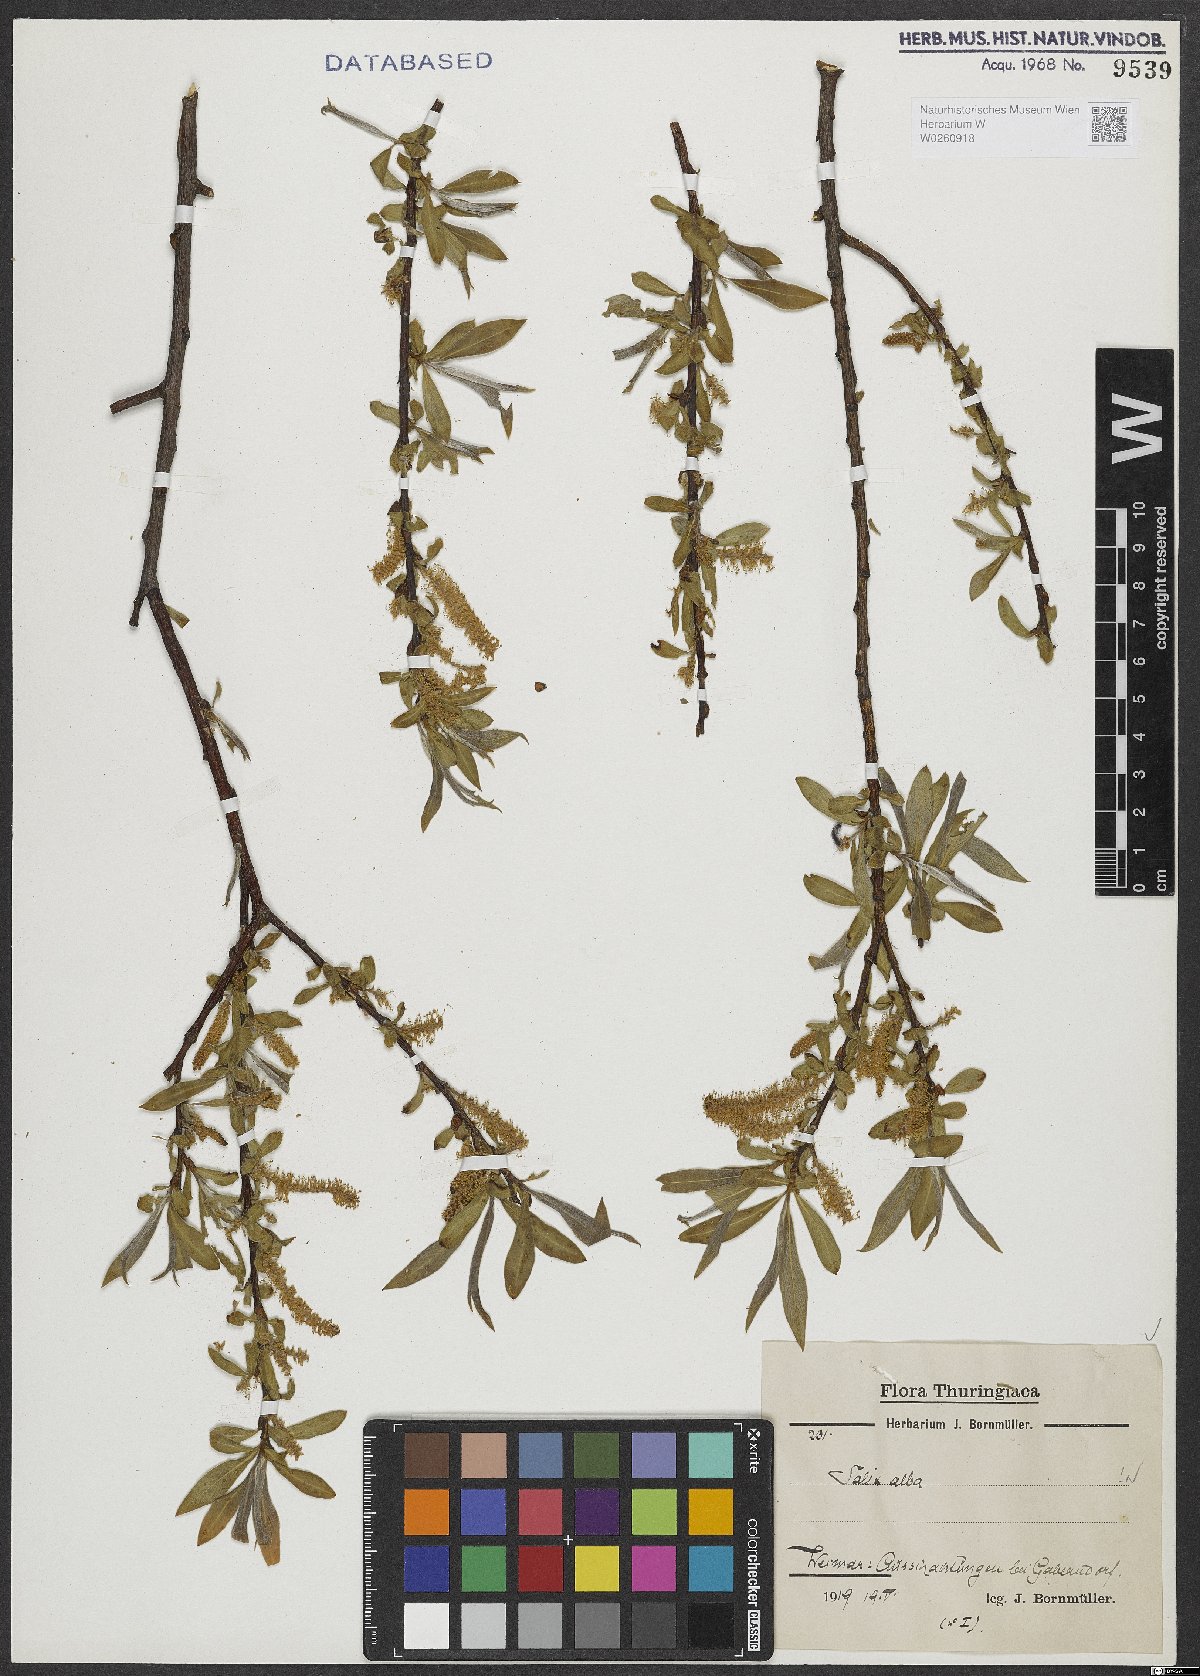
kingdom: Plantae
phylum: Tracheophyta
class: Magnoliopsida
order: Malpighiales
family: Salicaceae
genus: Salix
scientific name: Salix alba
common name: White willow
